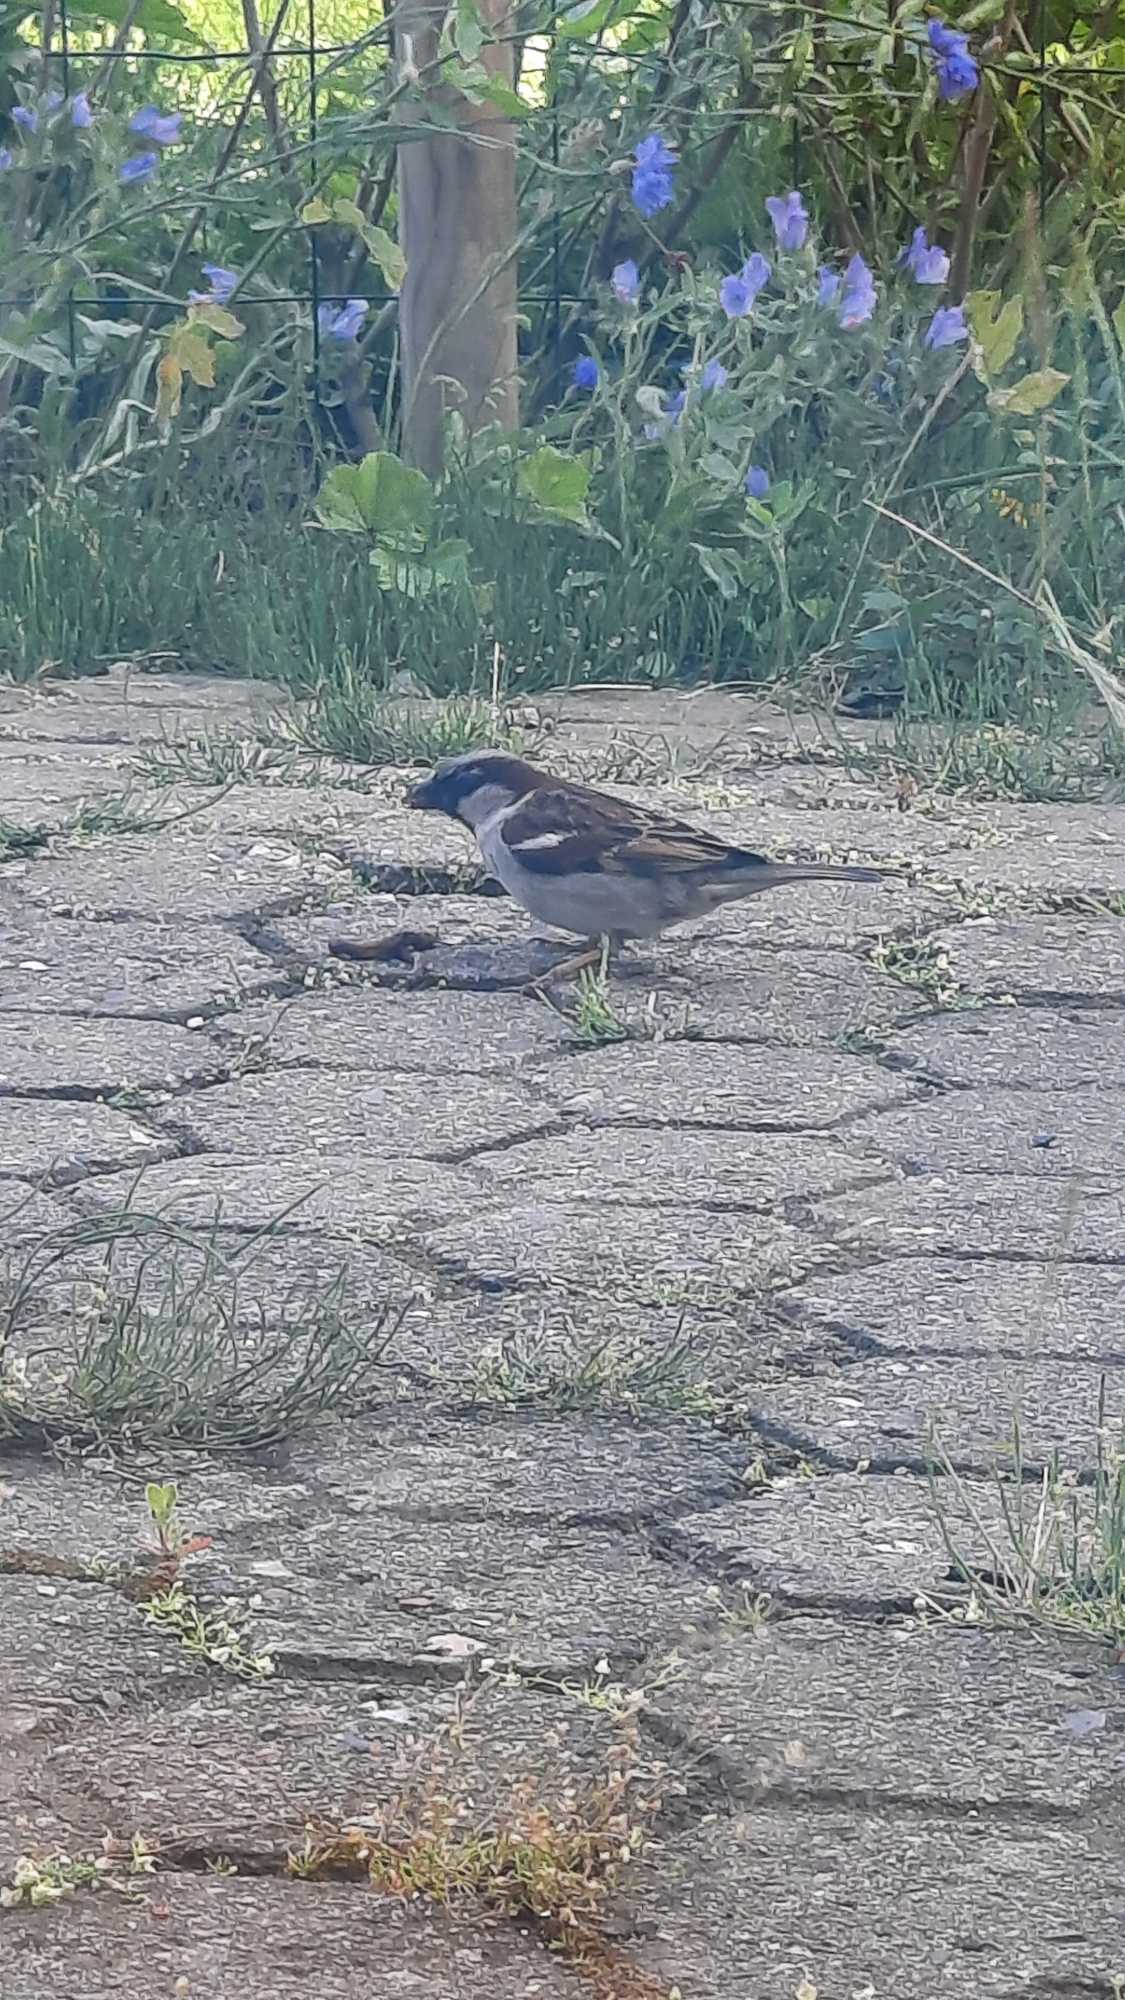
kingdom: Animalia
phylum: Chordata
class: Aves
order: Passeriformes
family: Passeridae
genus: Passer
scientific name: Passer domesticus
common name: Gråspurv
